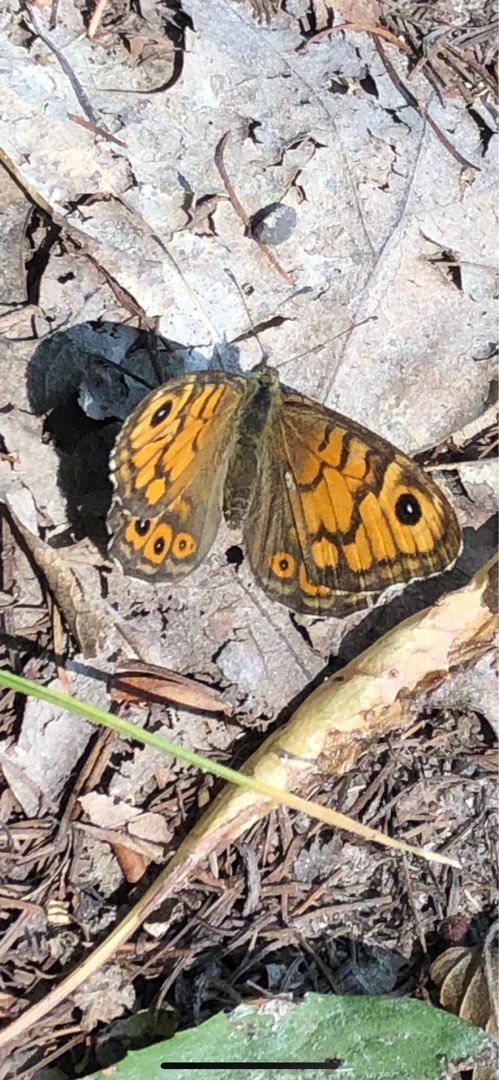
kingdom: Animalia
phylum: Arthropoda
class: Insecta
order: Lepidoptera
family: Nymphalidae
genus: Pararge
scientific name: Pararge Lasiommata megera
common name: Vejrandøje
